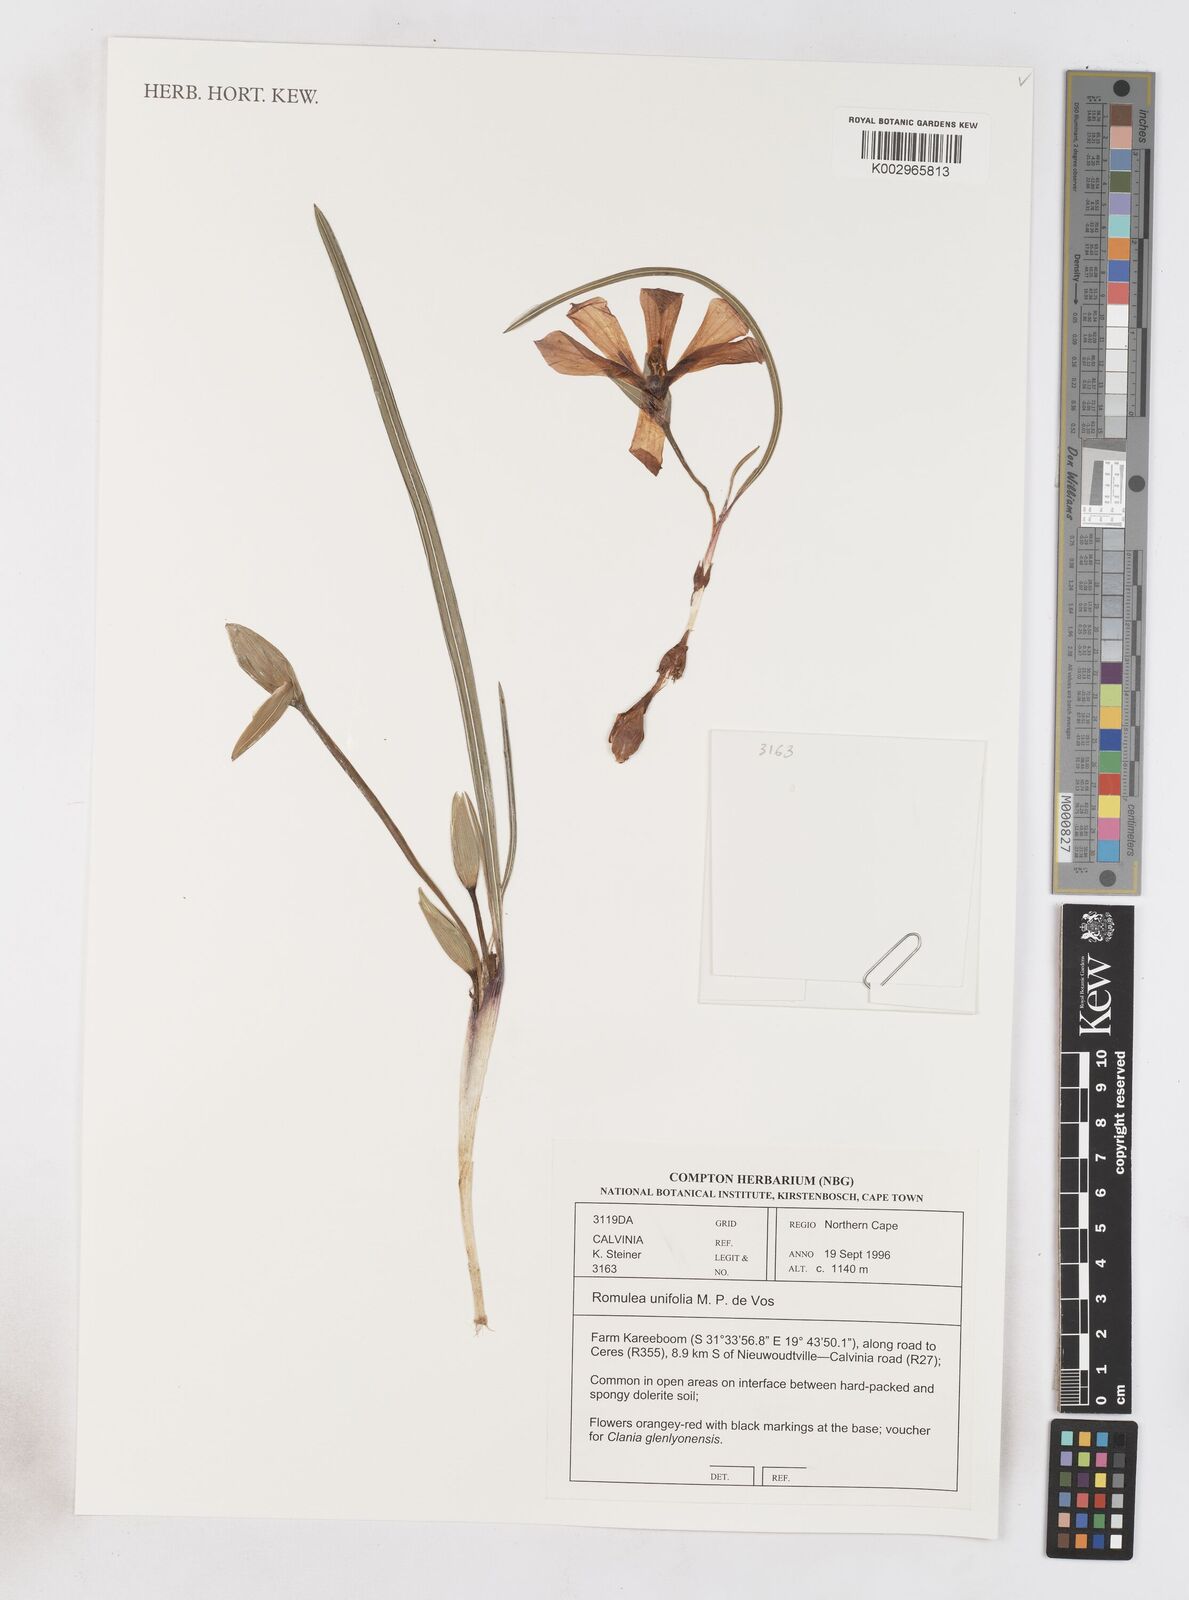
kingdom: Plantae
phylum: Tracheophyta
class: Liliopsida
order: Asparagales
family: Iridaceae
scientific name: Iridaceae
